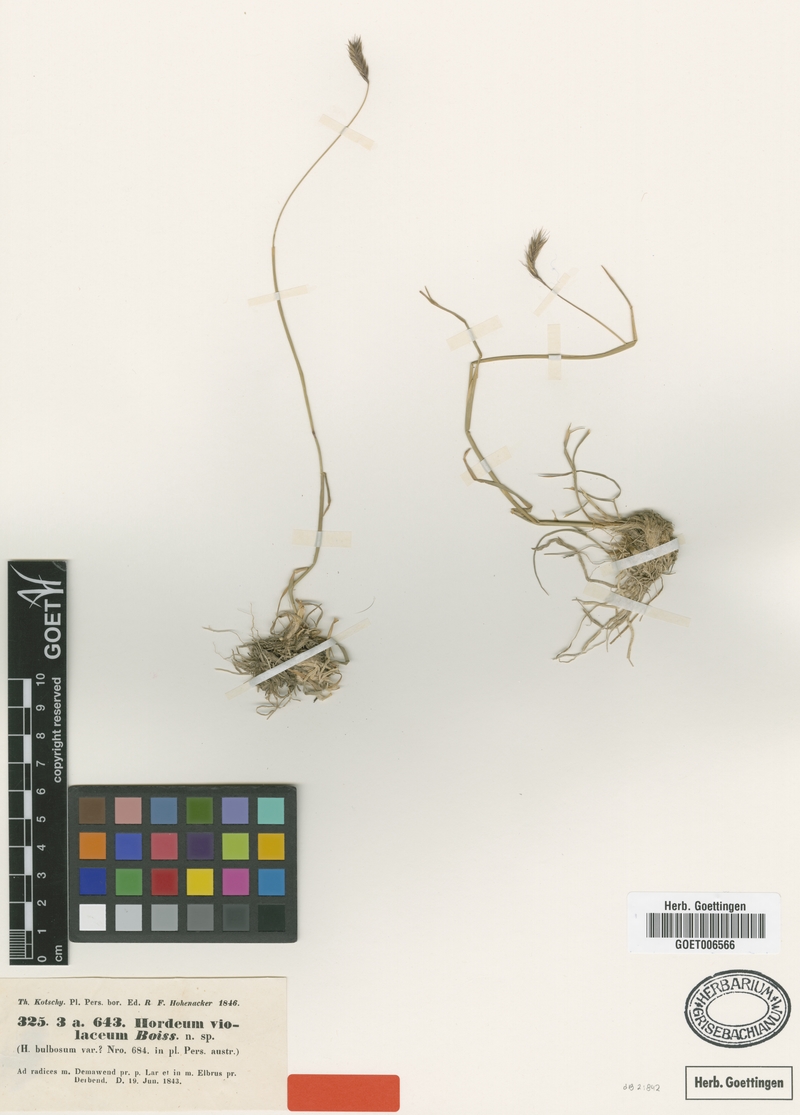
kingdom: Plantae
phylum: Tracheophyta
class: Liliopsida
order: Poales
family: Poaceae
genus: Hordeum
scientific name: Hordeum brevisubulatum
